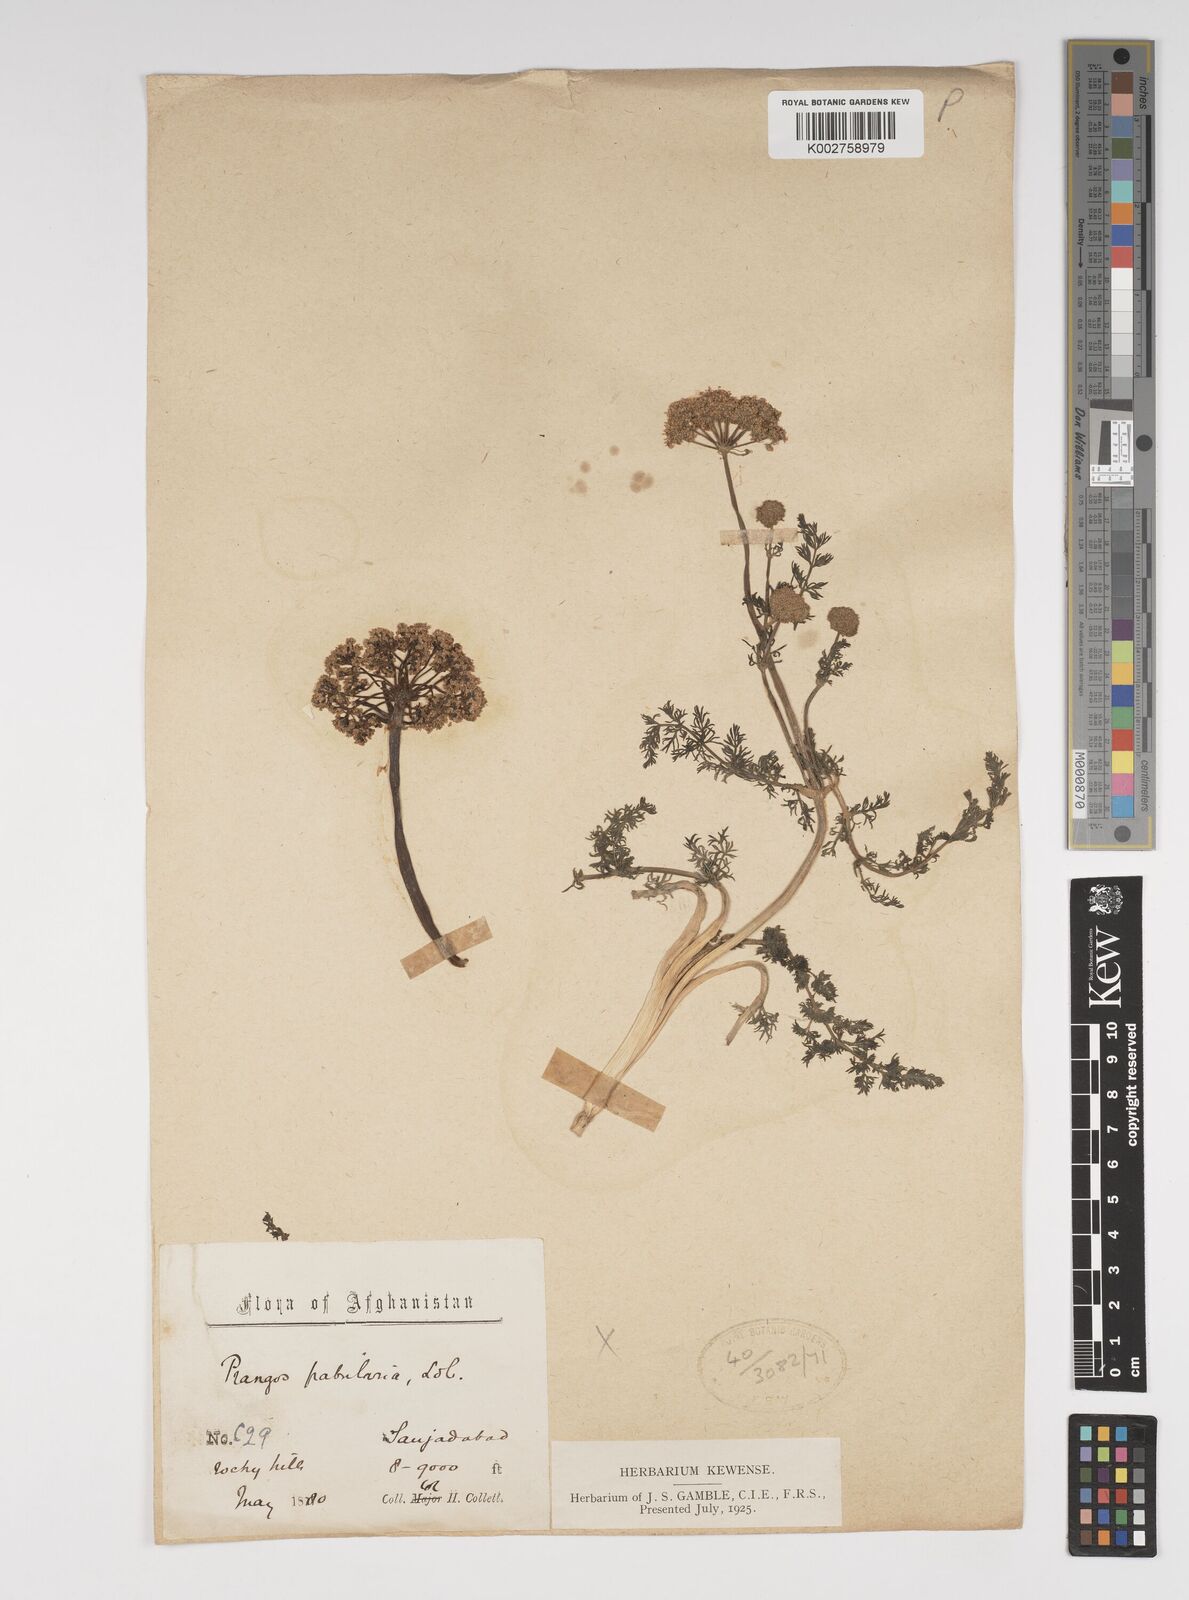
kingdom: Plantae
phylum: Tracheophyta
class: Magnoliopsida
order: Apiales
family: Apiaceae
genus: Prangos
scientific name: Prangos pabularia
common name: Yugan
